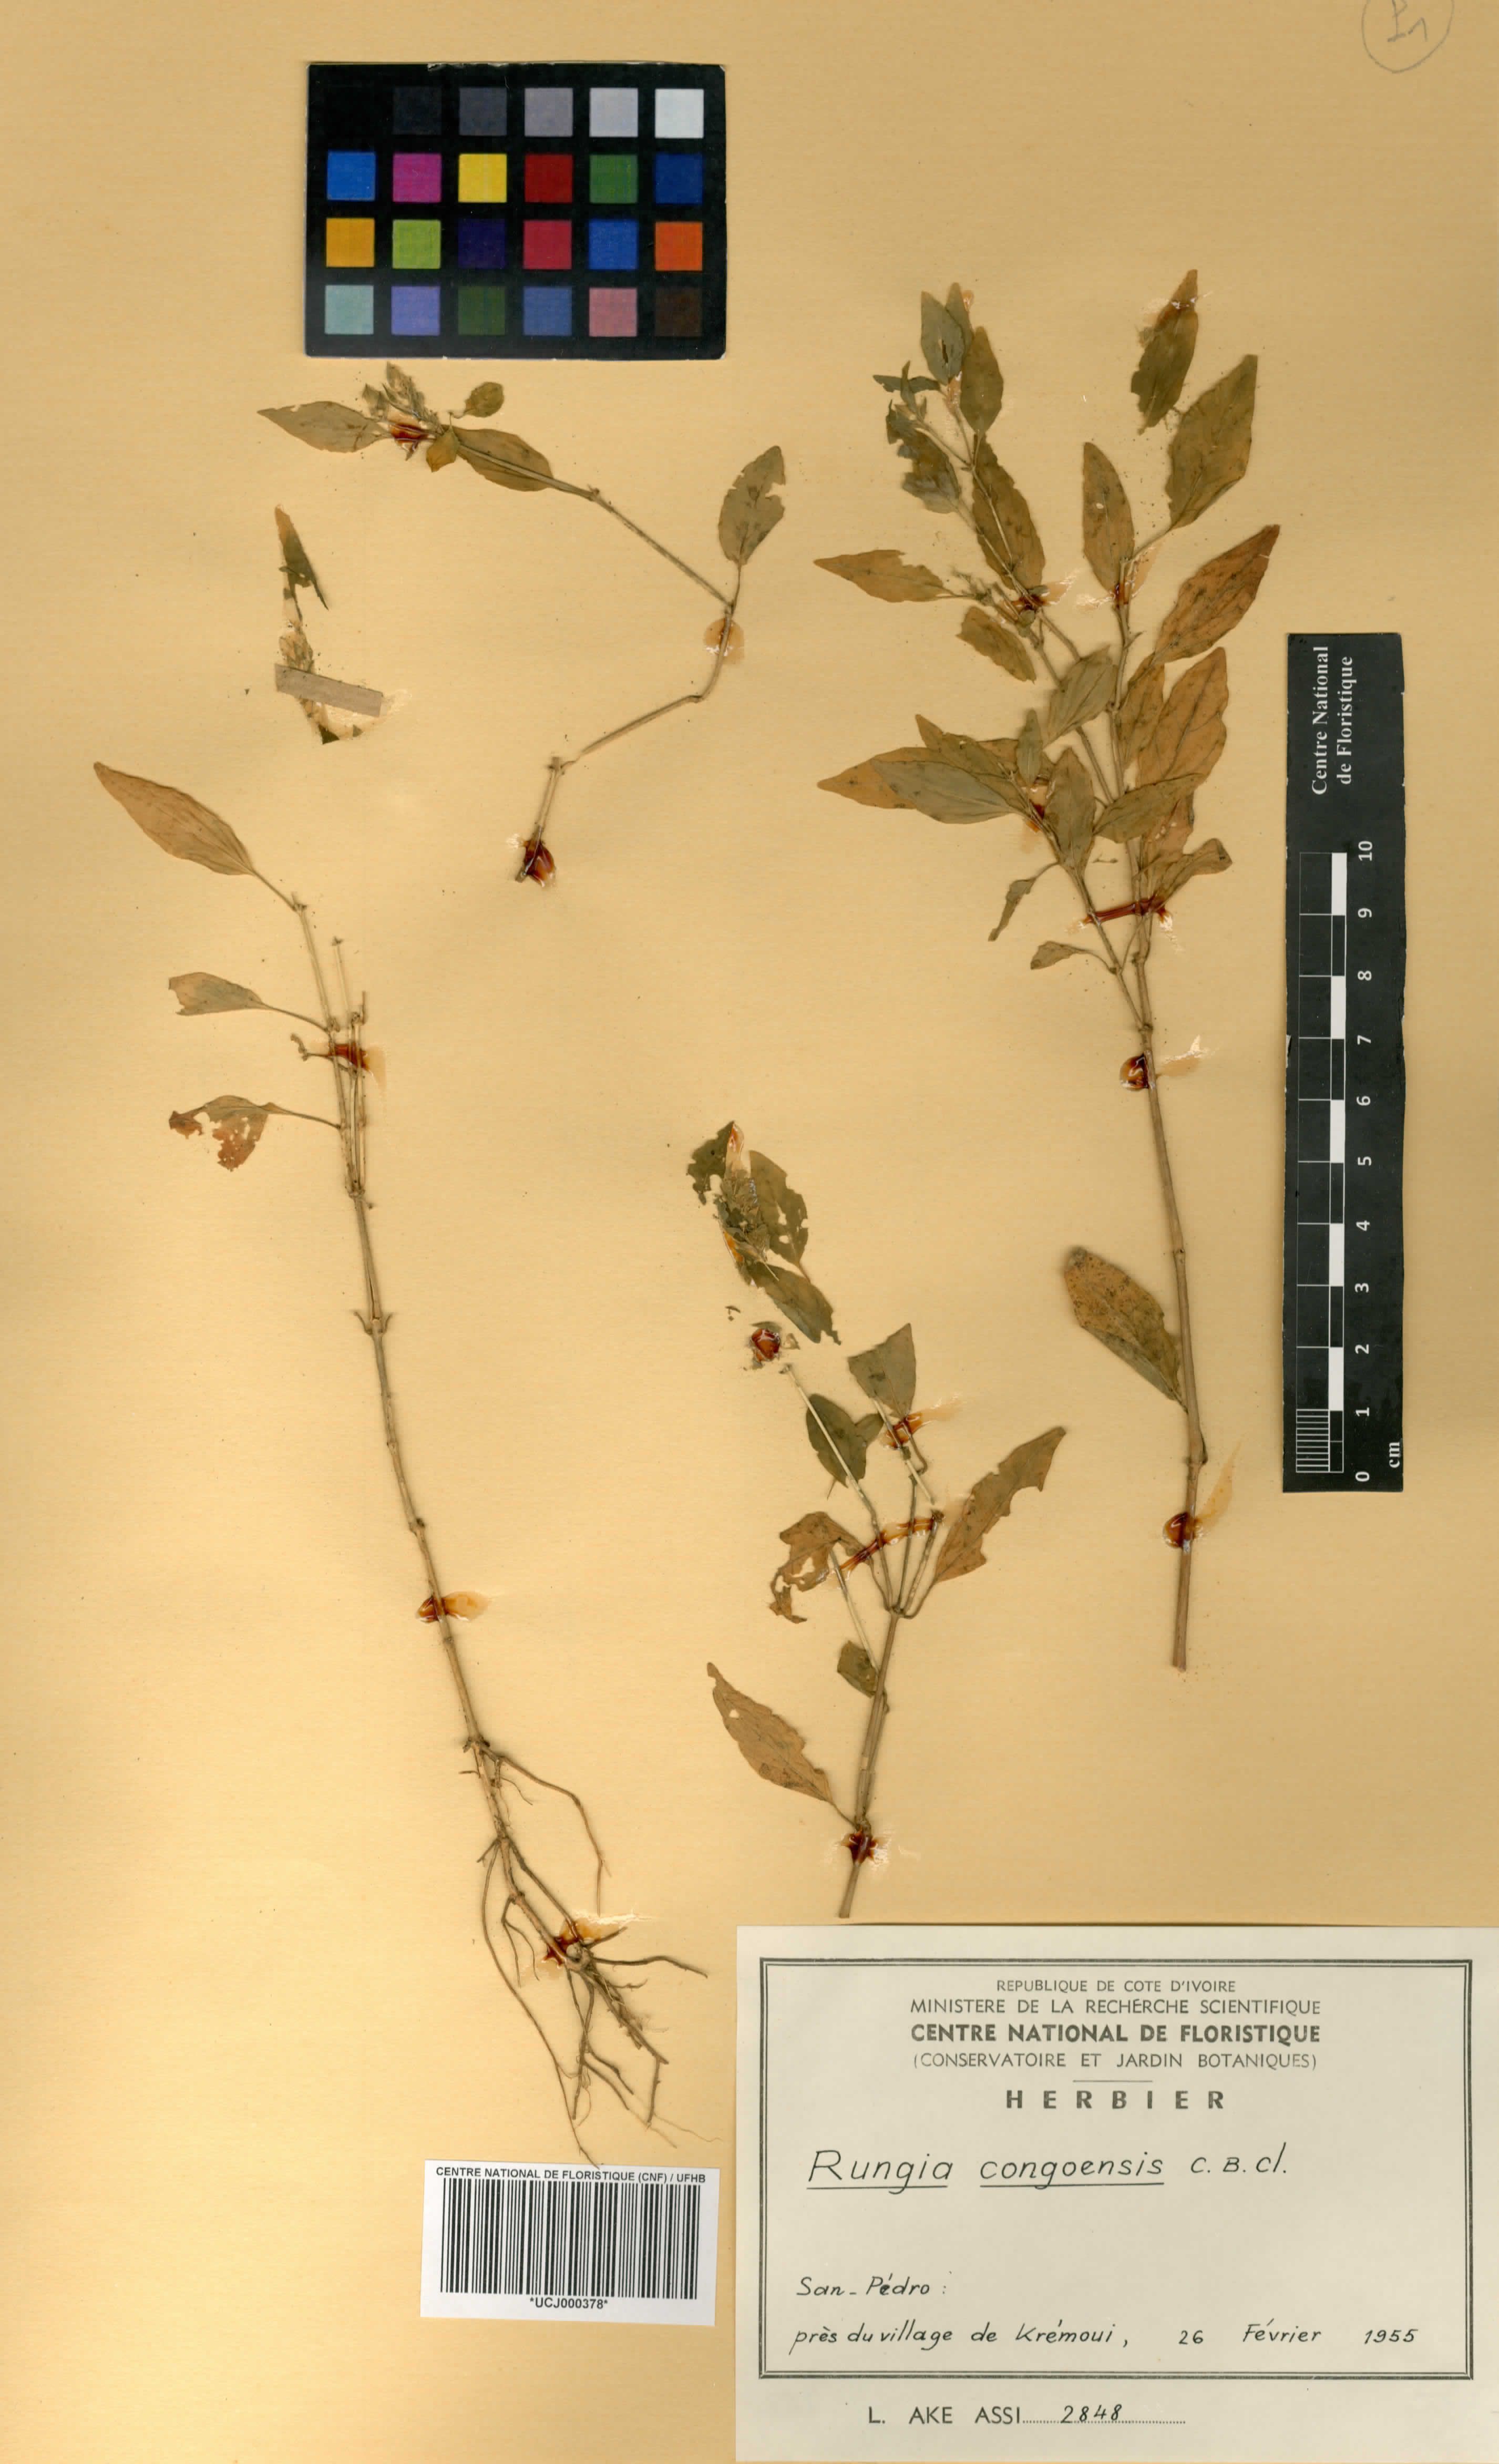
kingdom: Plantae
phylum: Tracheophyta
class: Magnoliopsida
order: Lamiales
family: Acanthaceae
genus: Ruellia
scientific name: Ruellia congoensis
